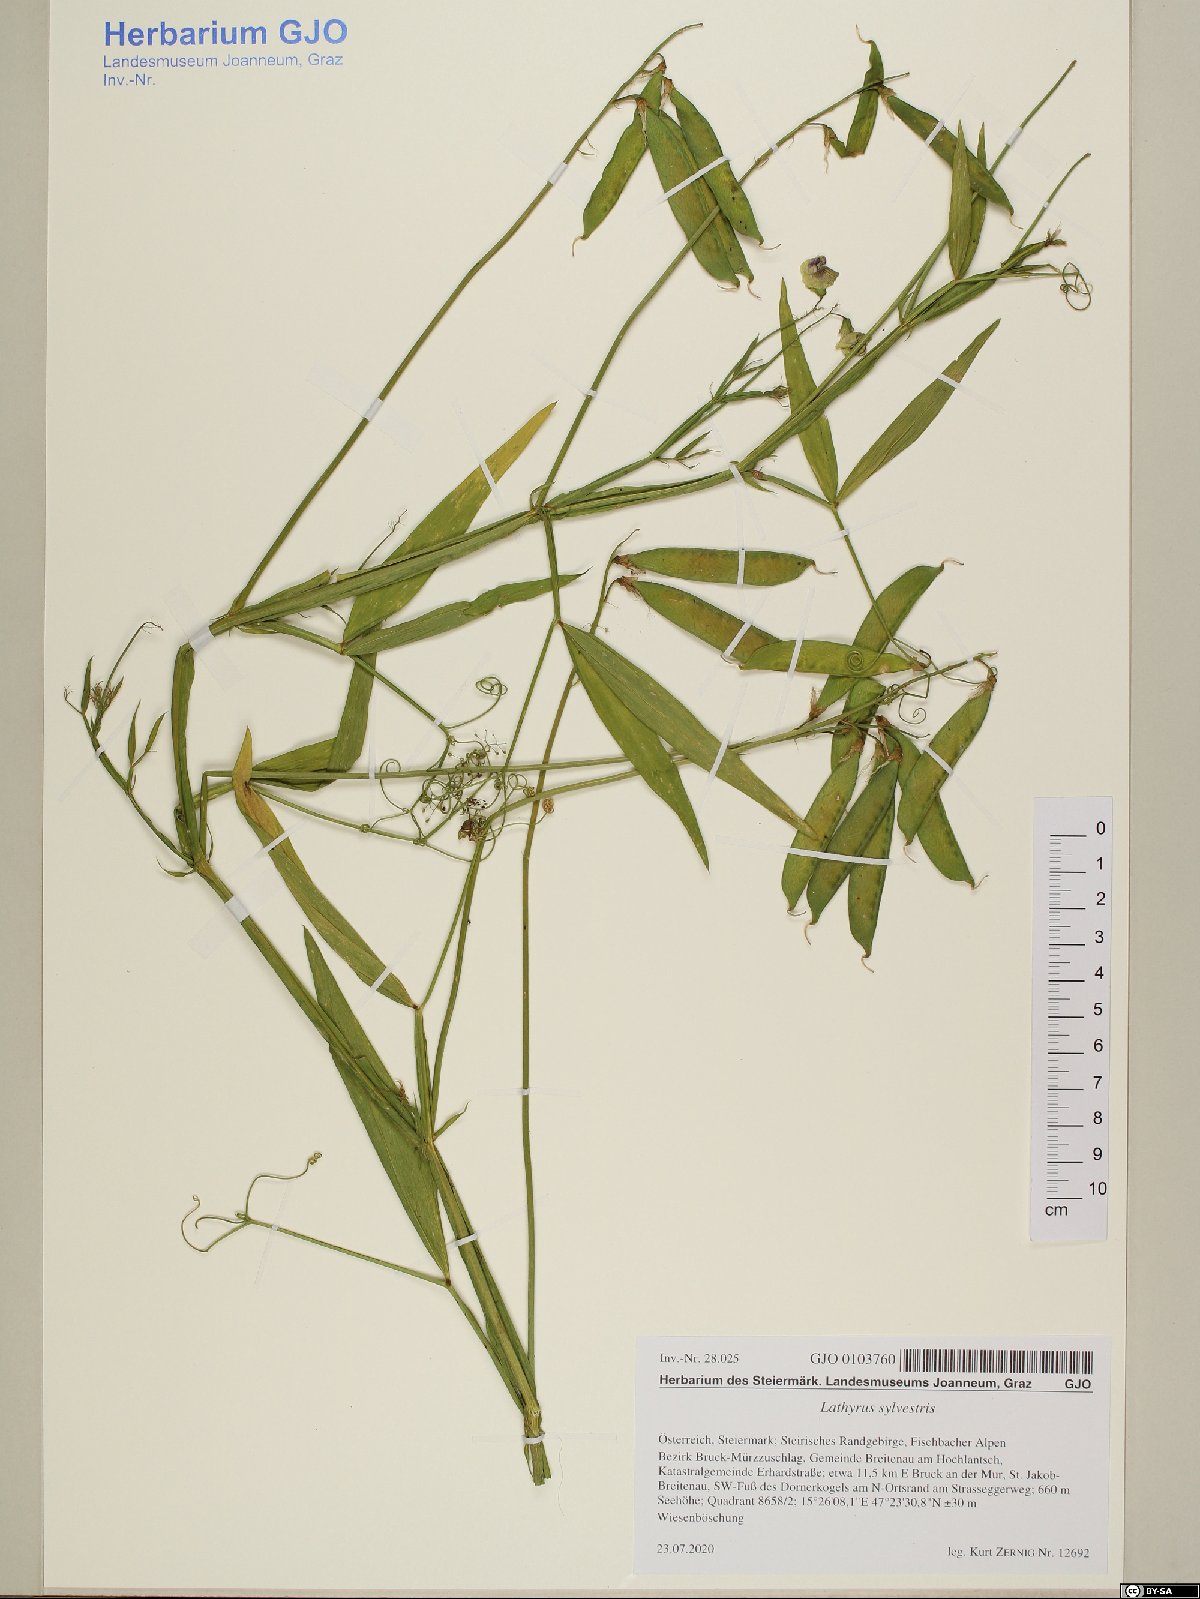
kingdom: Plantae
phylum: Tracheophyta
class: Magnoliopsida
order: Fabales
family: Fabaceae
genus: Lathyrus
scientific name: Lathyrus sylvestris
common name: Flat pea
